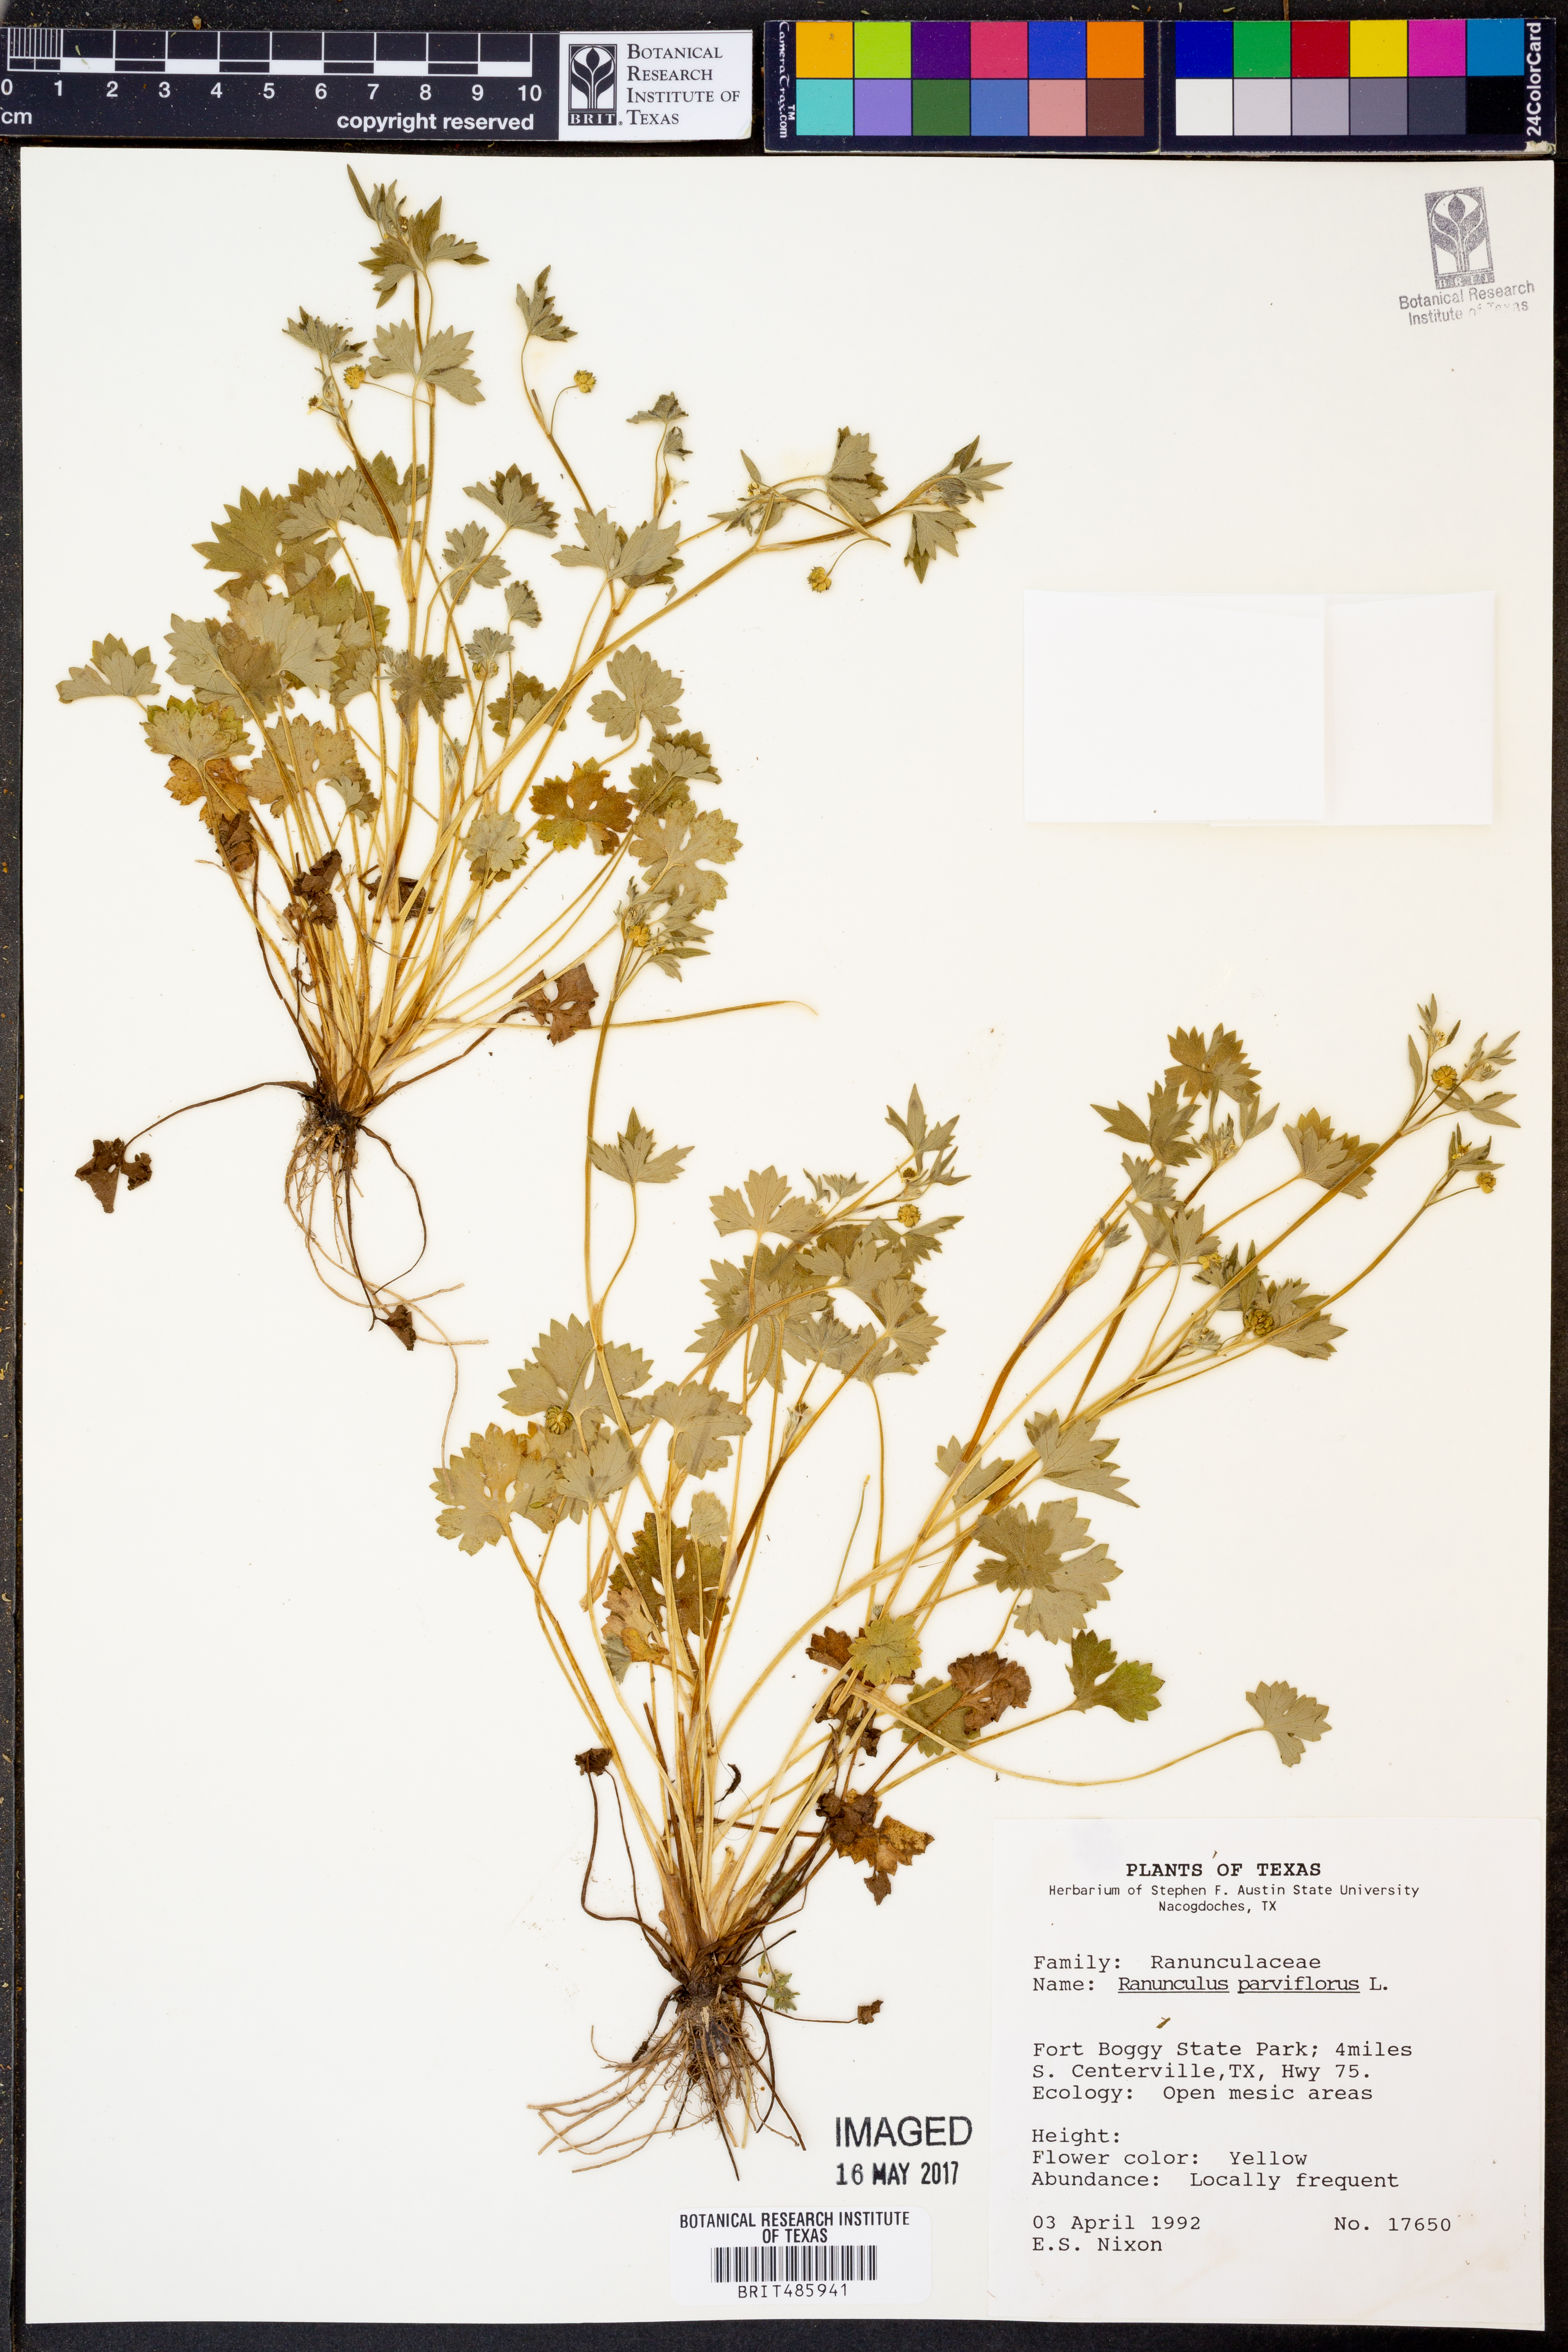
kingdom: Plantae
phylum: Tracheophyta
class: Magnoliopsida
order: Ranunculales
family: Ranunculaceae
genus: Ranunculus
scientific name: Ranunculus parviflorus
